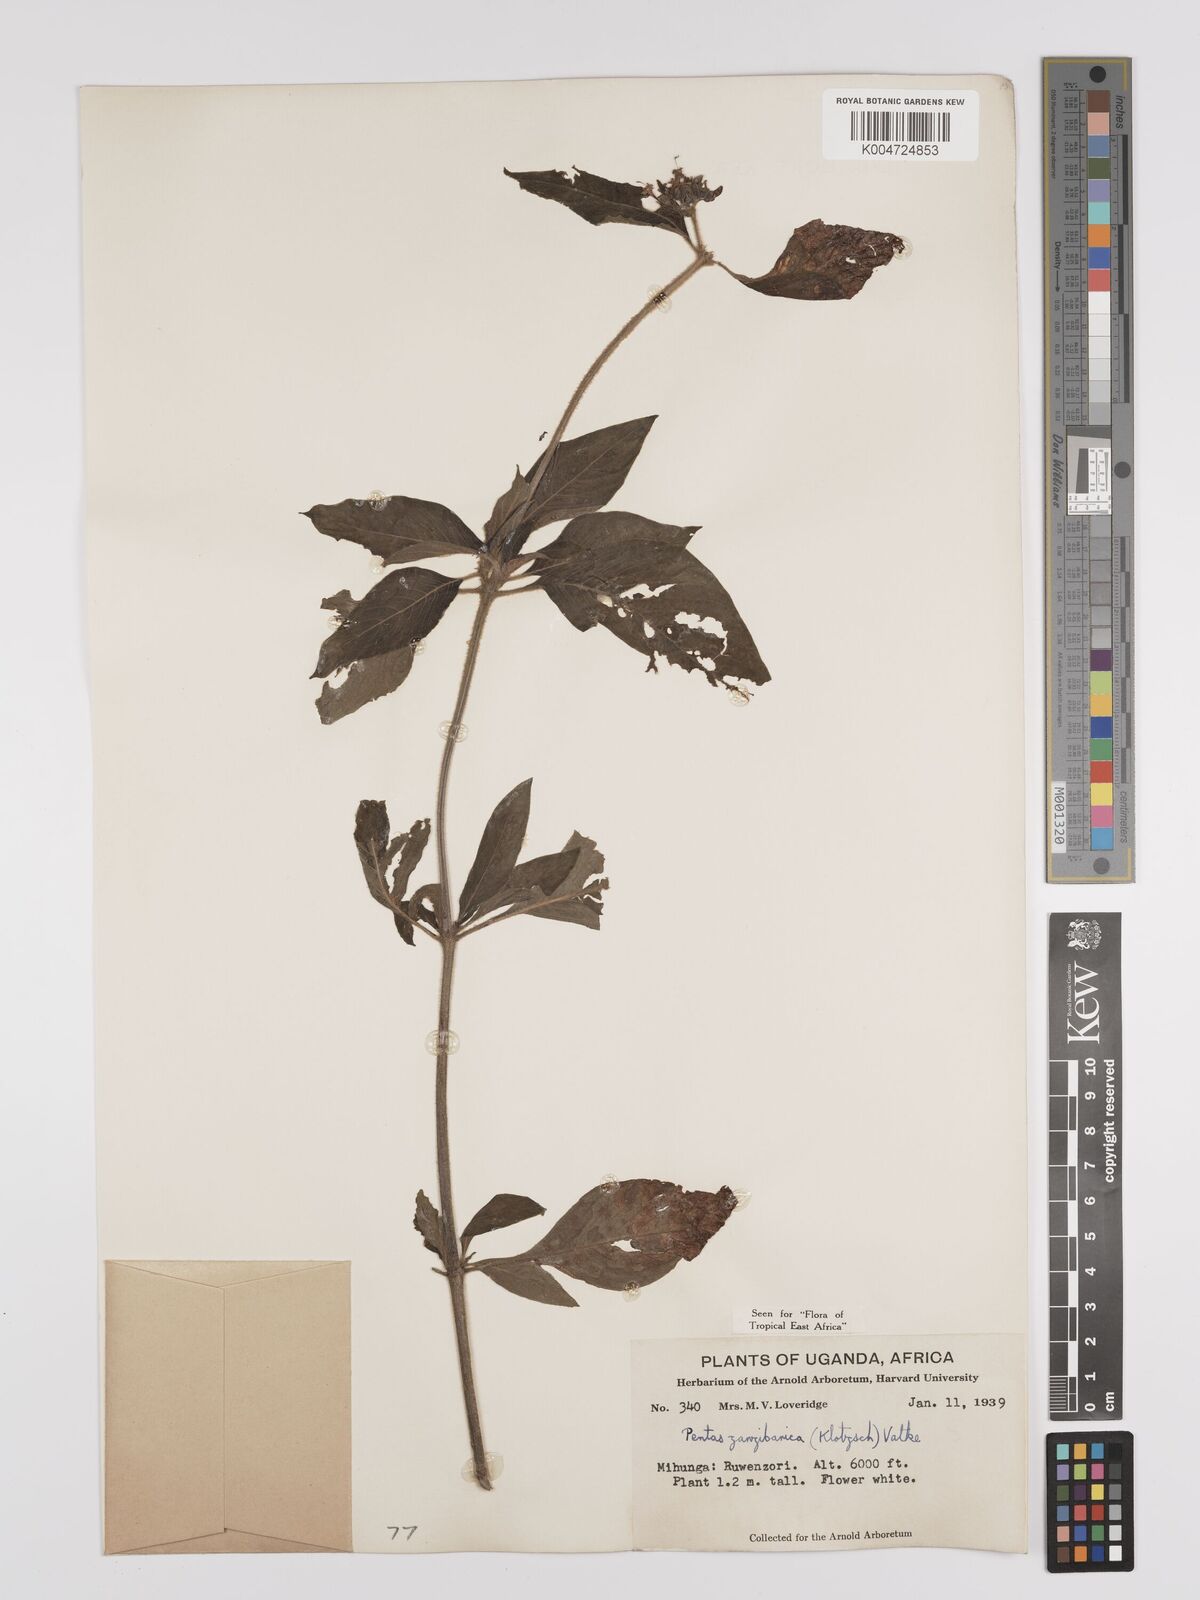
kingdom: Plantae
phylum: Tracheophyta
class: Magnoliopsida
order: Gentianales
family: Rubiaceae
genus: Pentas
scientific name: Pentas zanzibarica
